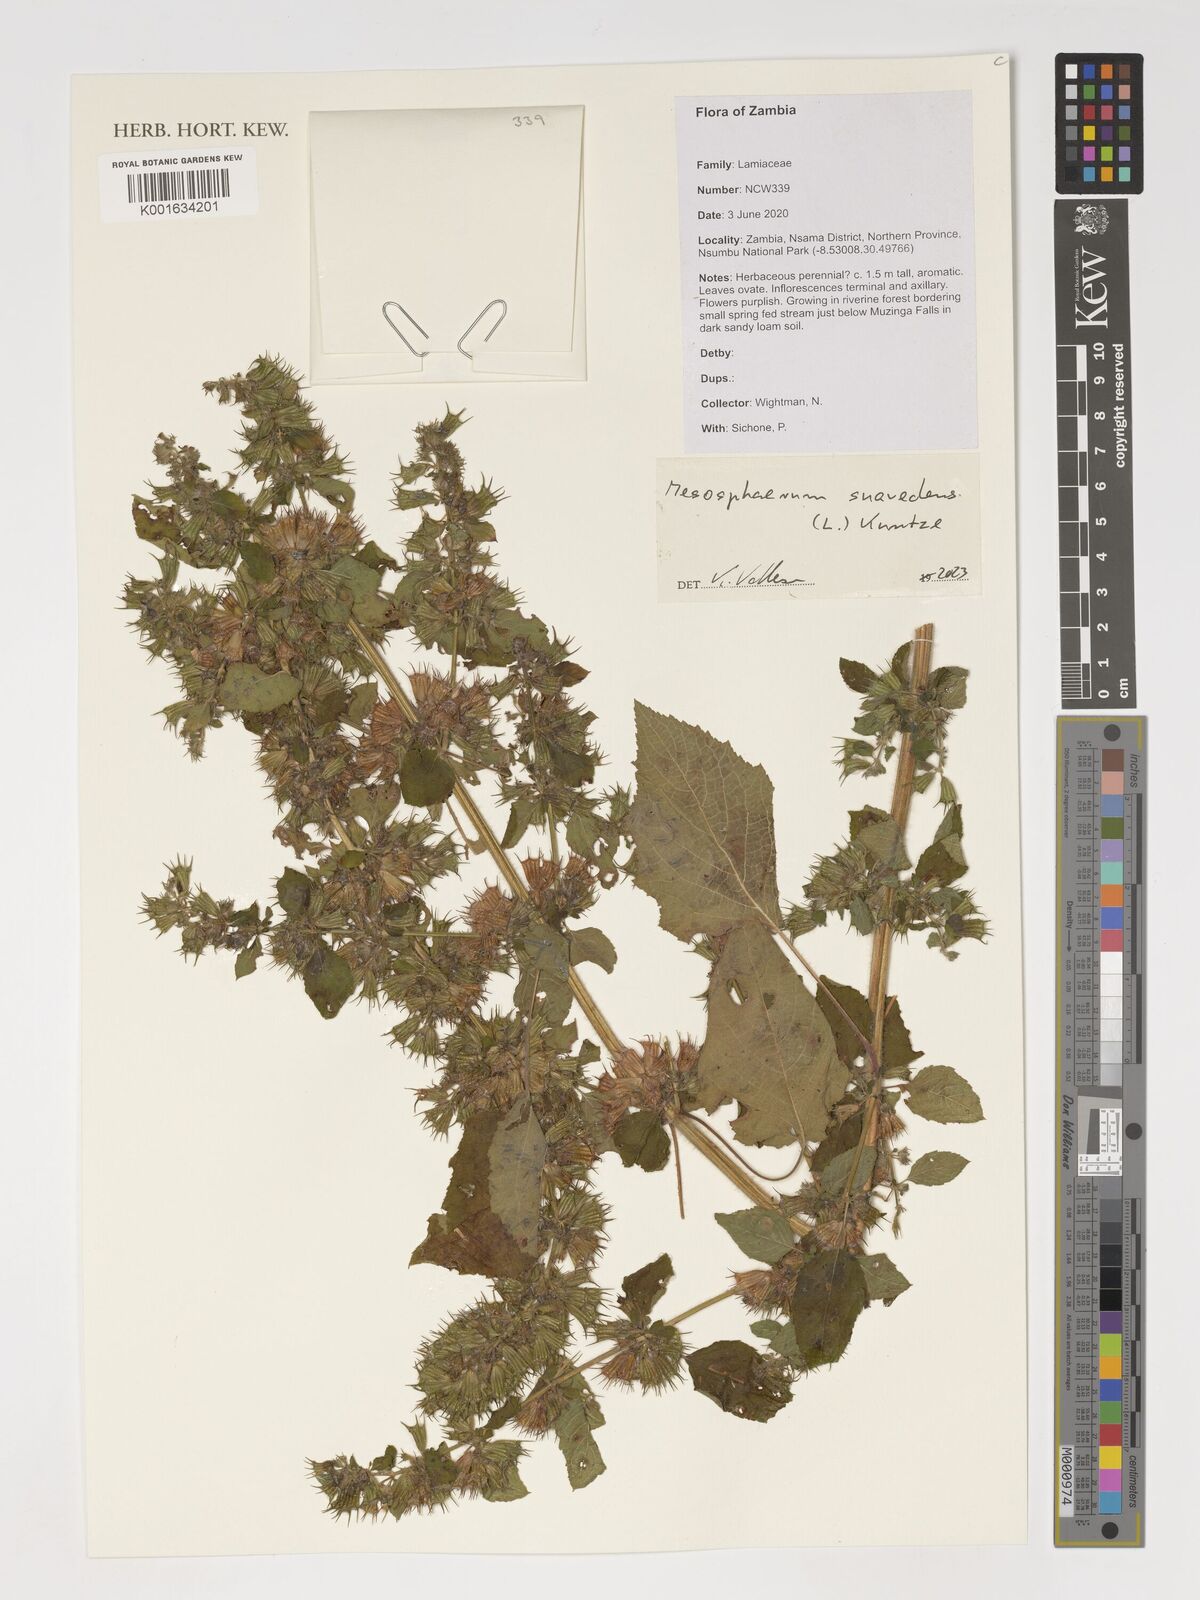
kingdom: Plantae
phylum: Tracheophyta
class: Magnoliopsida
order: Lamiales
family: Lamiaceae
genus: Mesosphaerum
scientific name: Mesosphaerum suaveolens
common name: Pignut
